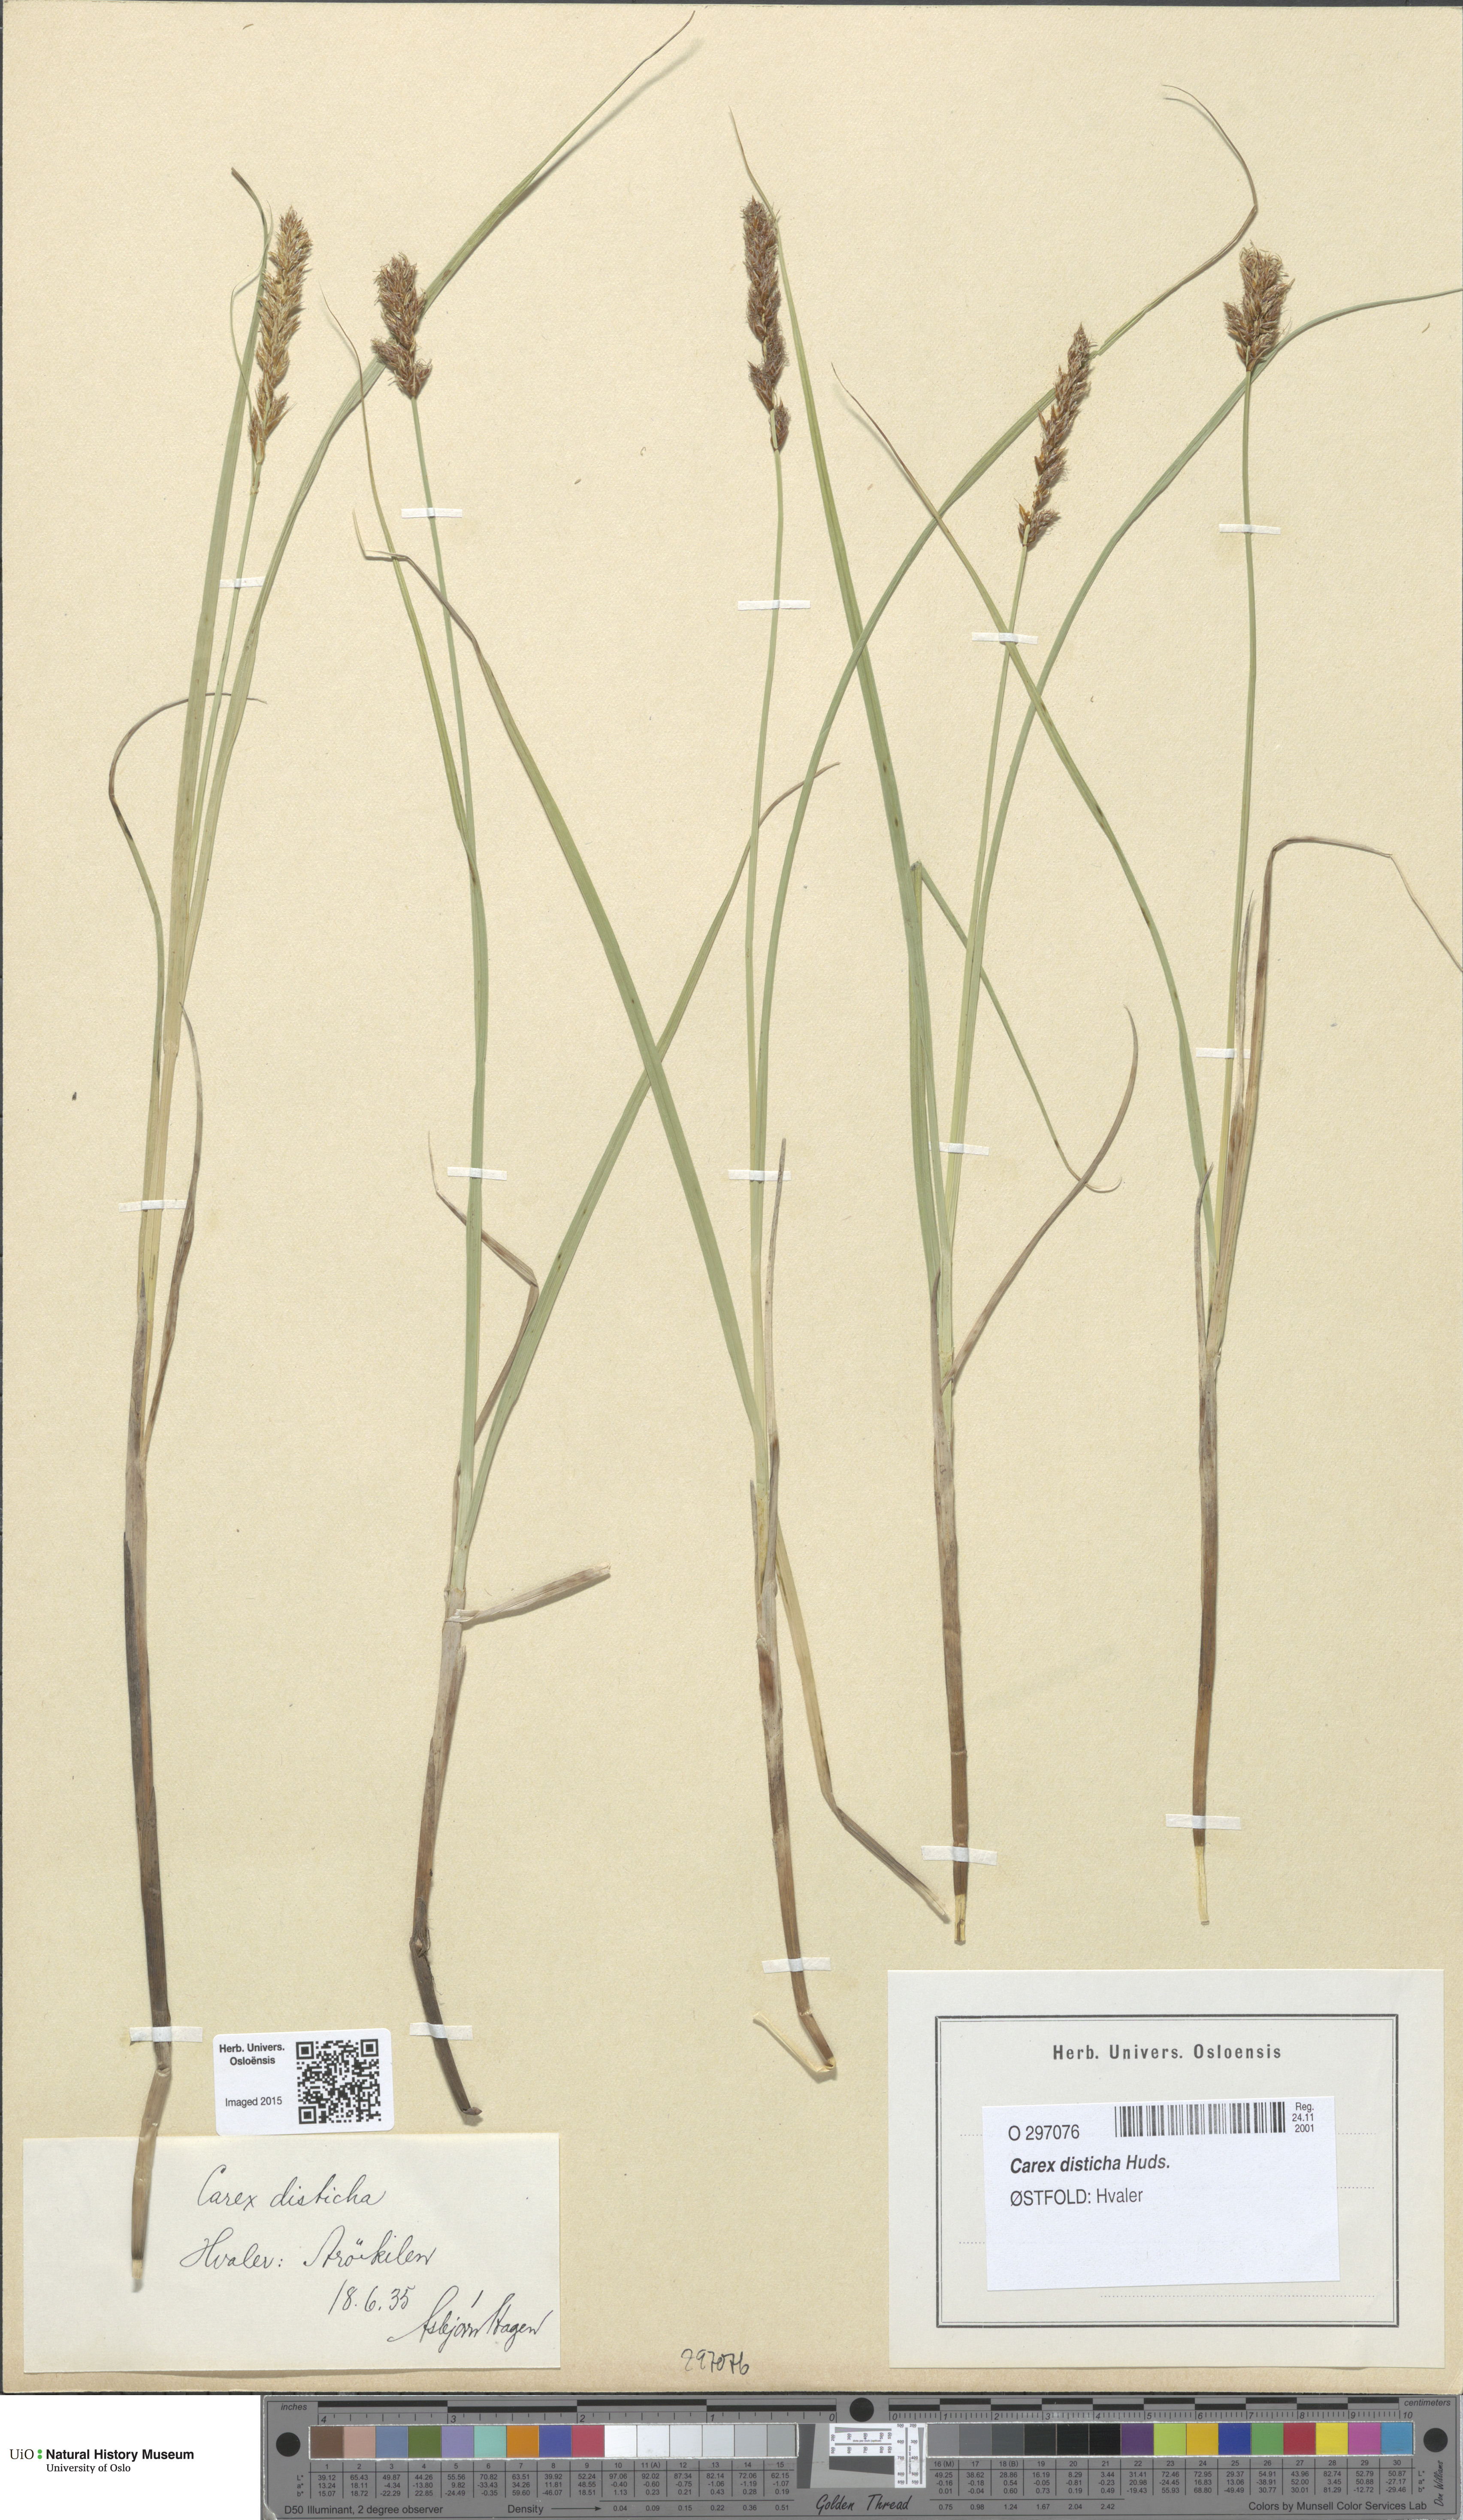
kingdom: Plantae
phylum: Tracheophyta
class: Liliopsida
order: Poales
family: Cyperaceae
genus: Carex
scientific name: Carex disticha
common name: Brown sedge
